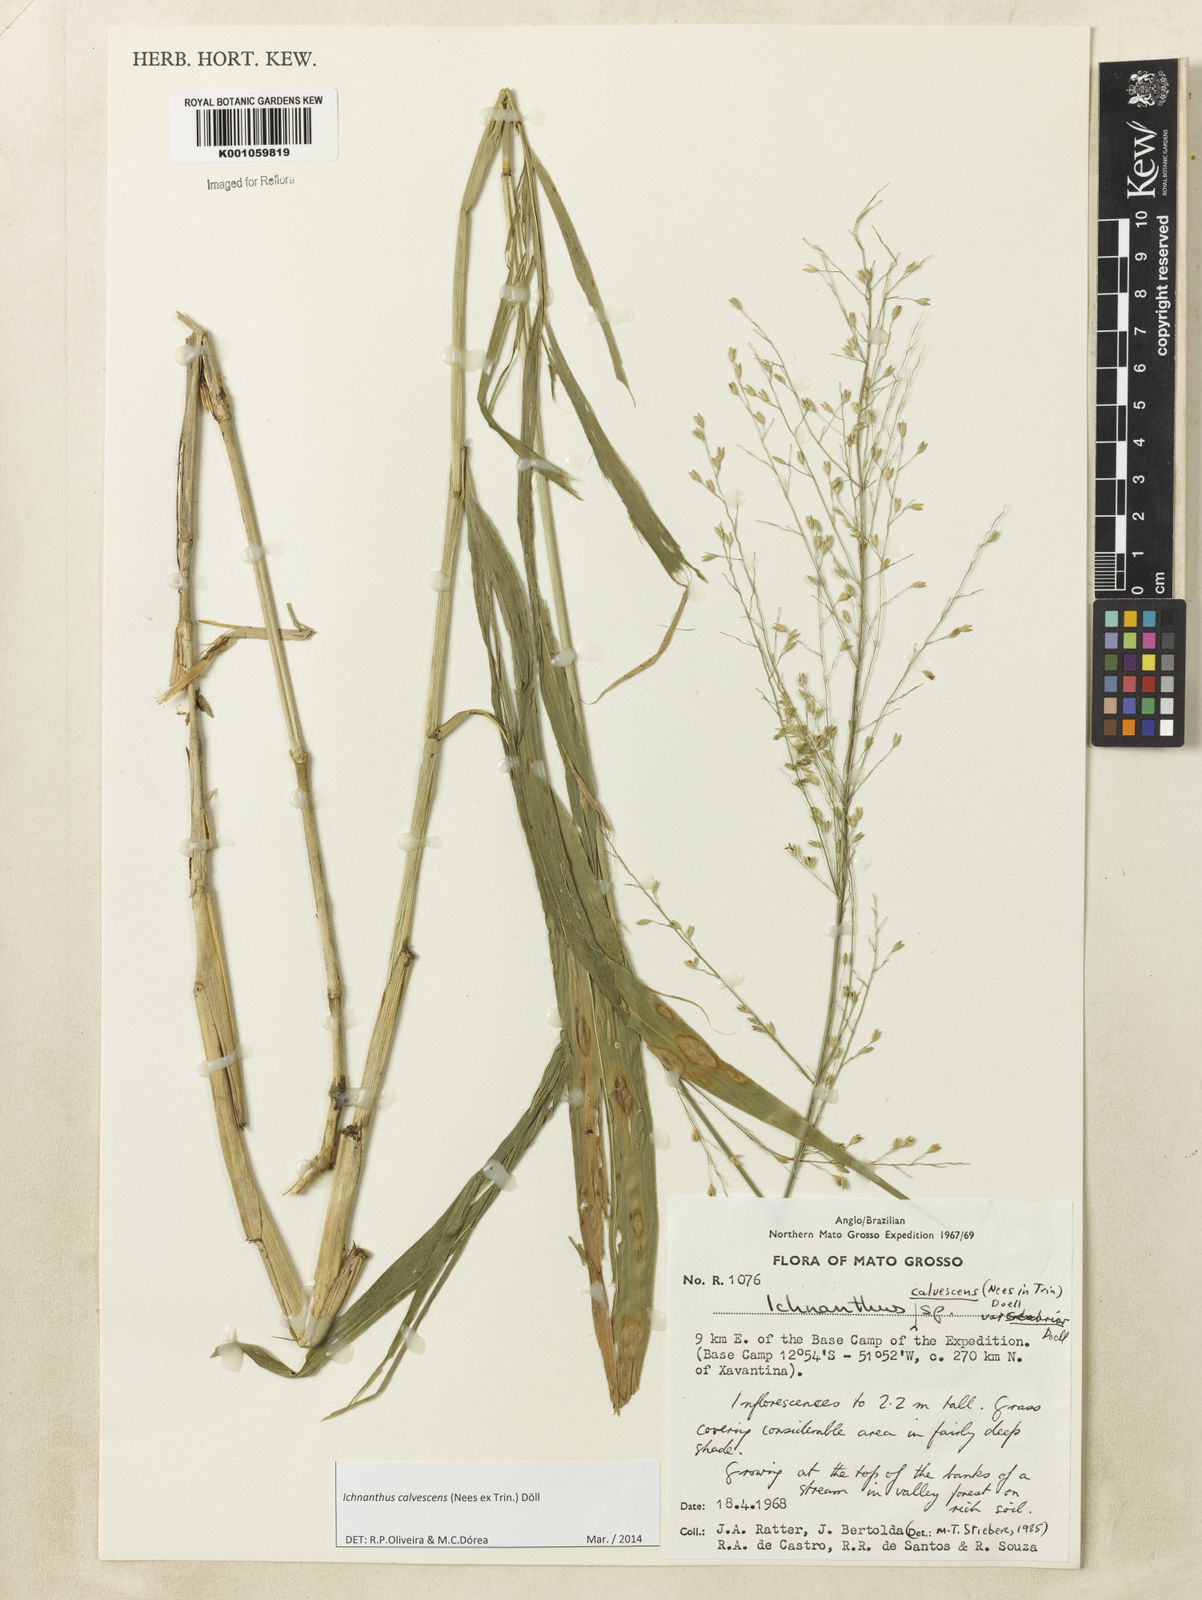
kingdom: Plantae
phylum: Tracheophyta
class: Liliopsida
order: Poales
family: Poaceae
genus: Ichnanthus
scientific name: Ichnanthus
